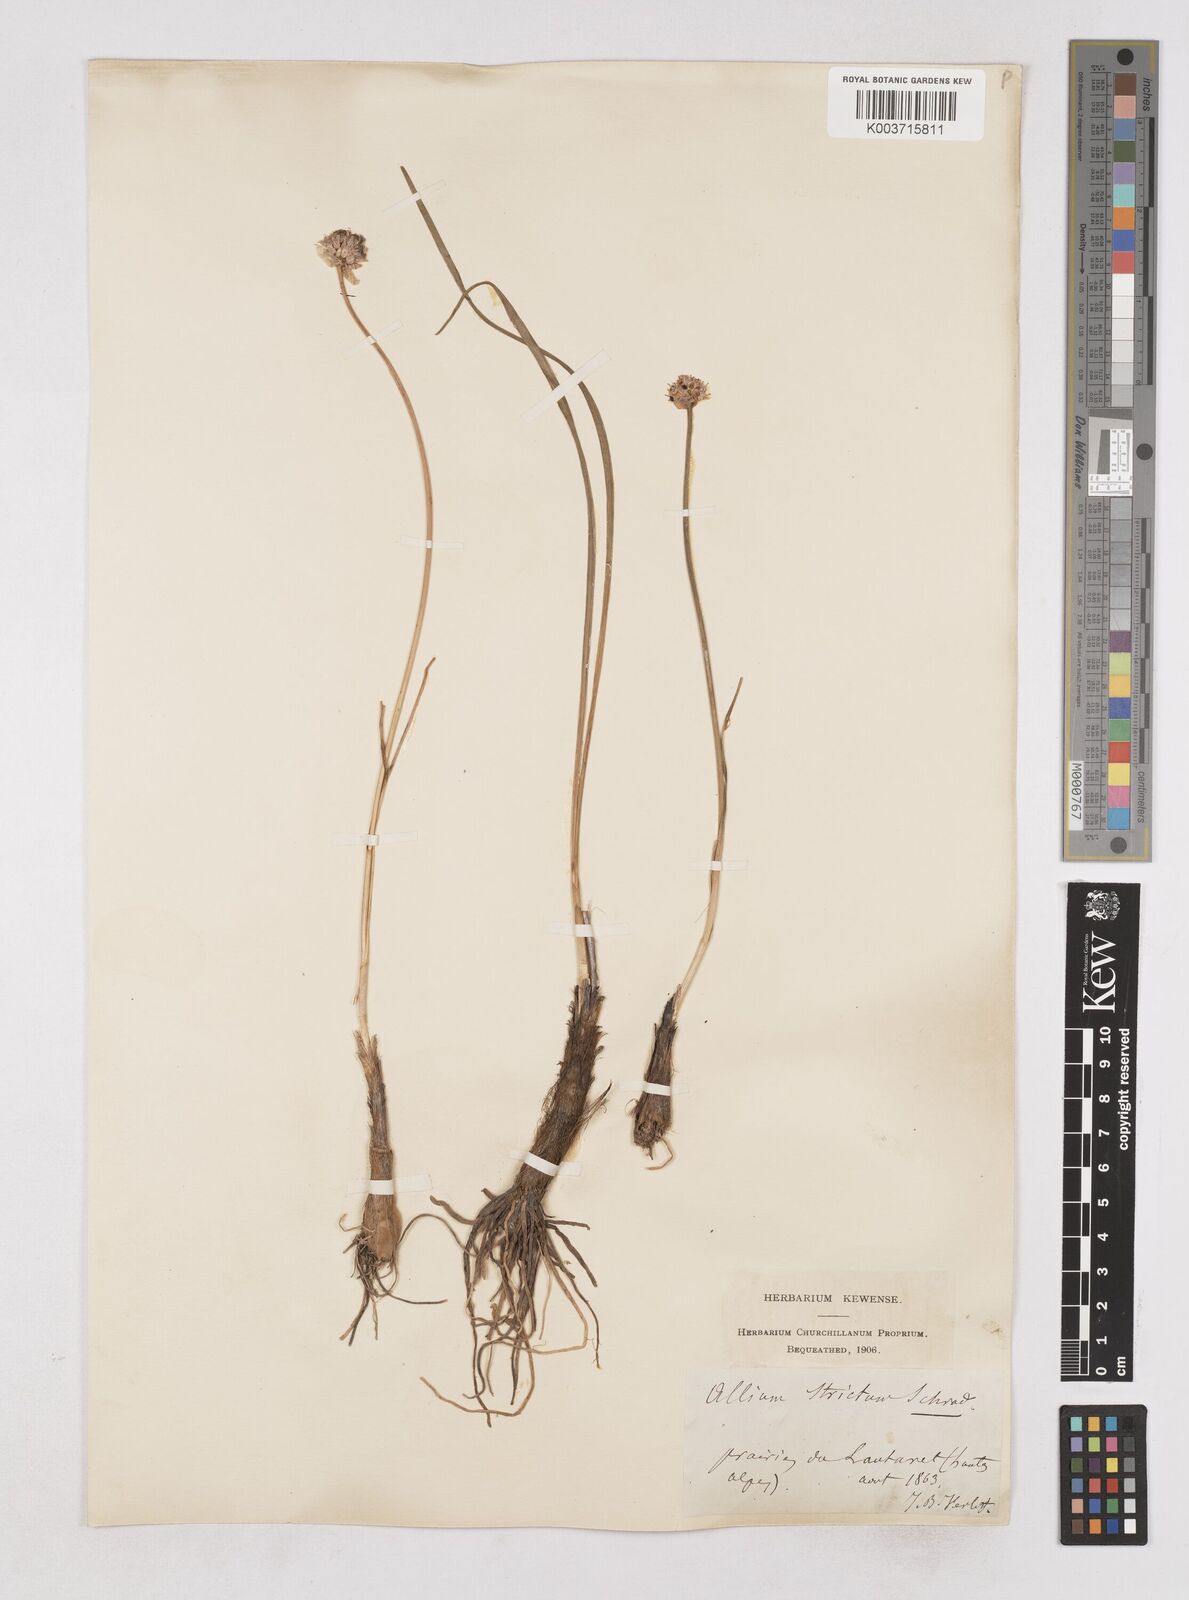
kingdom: Plantae
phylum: Tracheophyta
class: Liliopsida
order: Asparagales
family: Amaryllidaceae
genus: Allium
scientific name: Allium strictum
